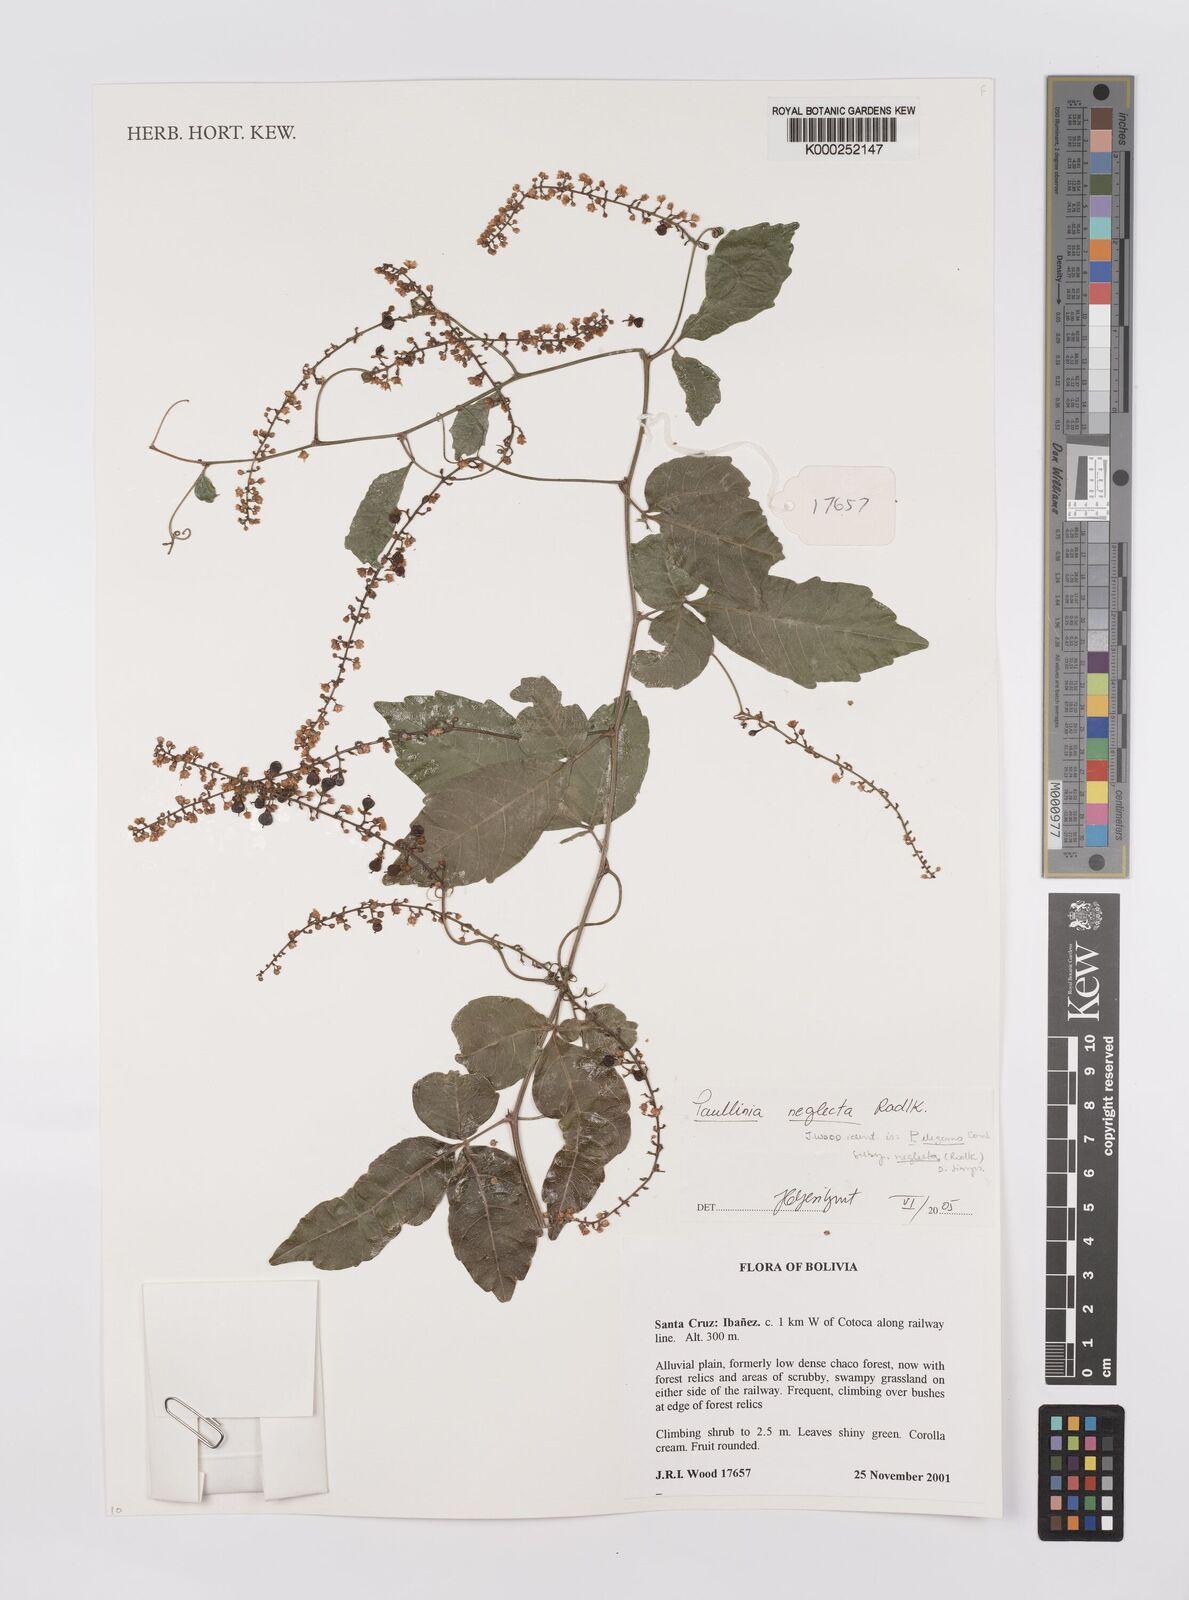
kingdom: Plantae
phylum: Tracheophyta
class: Magnoliopsida
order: Sapindales
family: Sapindaceae
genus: Paullinia
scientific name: Paullinia elegans
